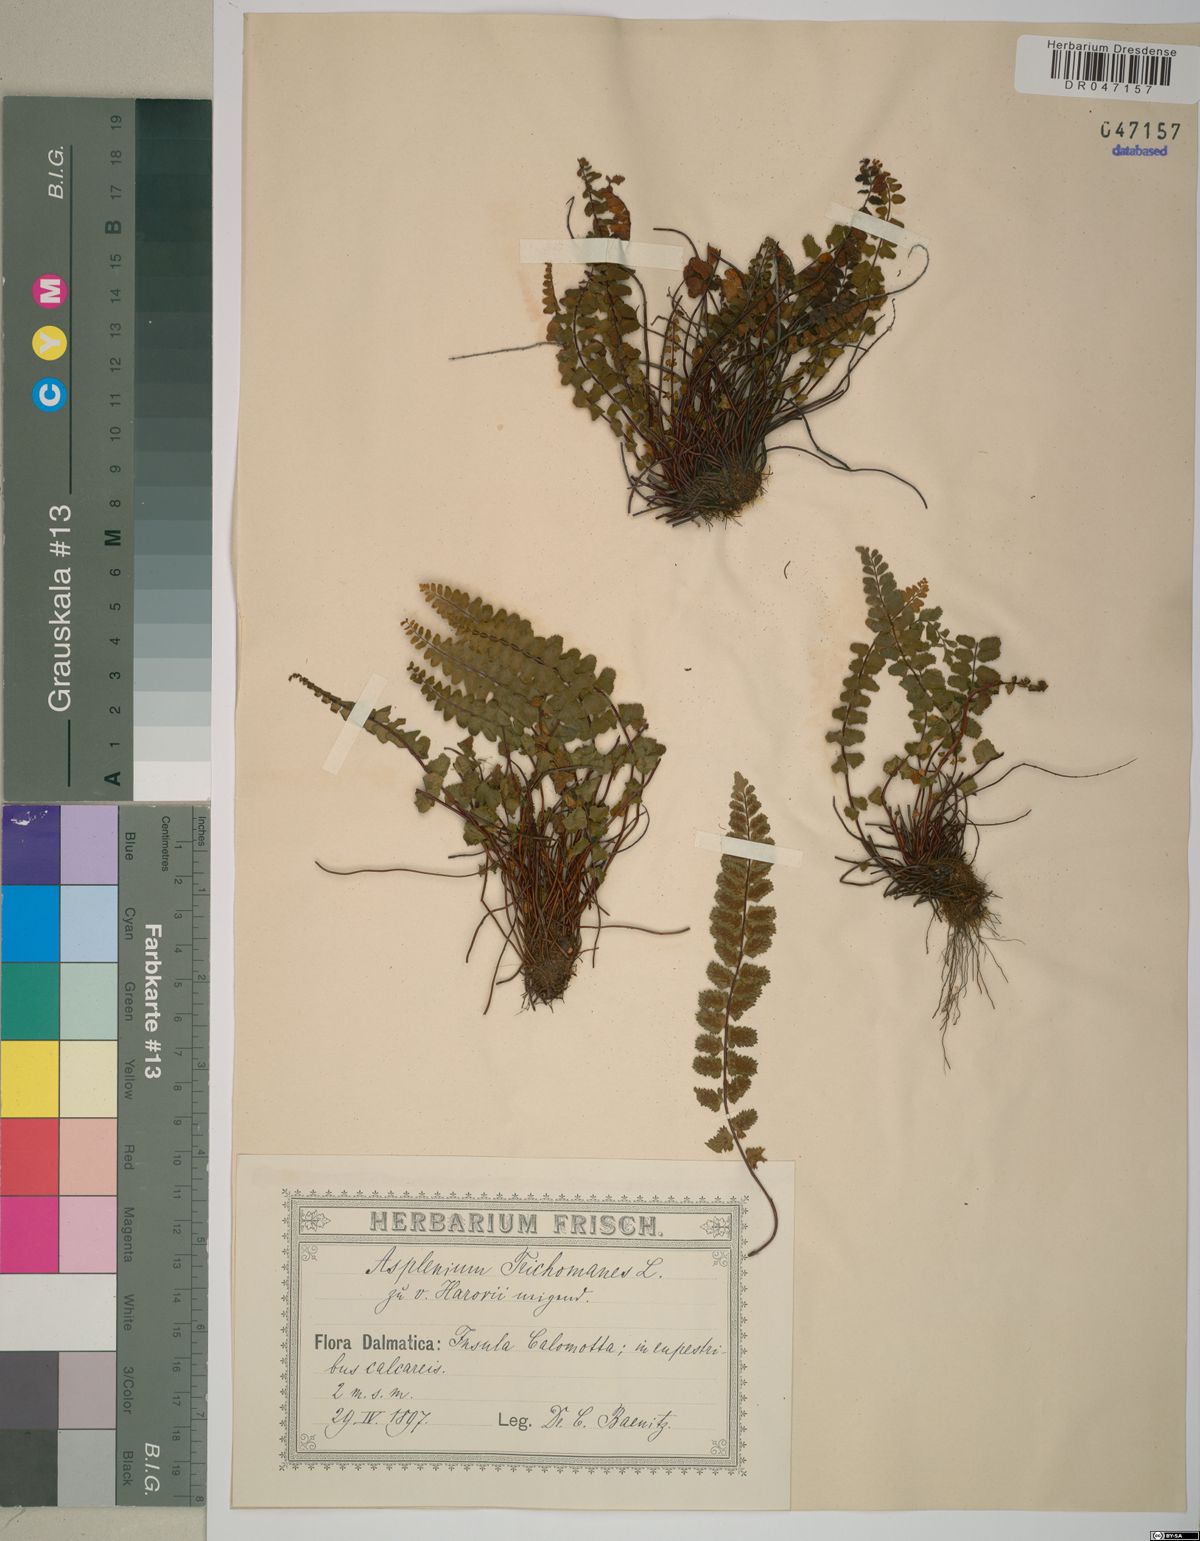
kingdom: Plantae
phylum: Tracheophyta
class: Polypodiopsida
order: Polypodiales
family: Aspleniaceae
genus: Asplenium
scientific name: Asplenium trichomanes
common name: Maidenhair spleenwort
